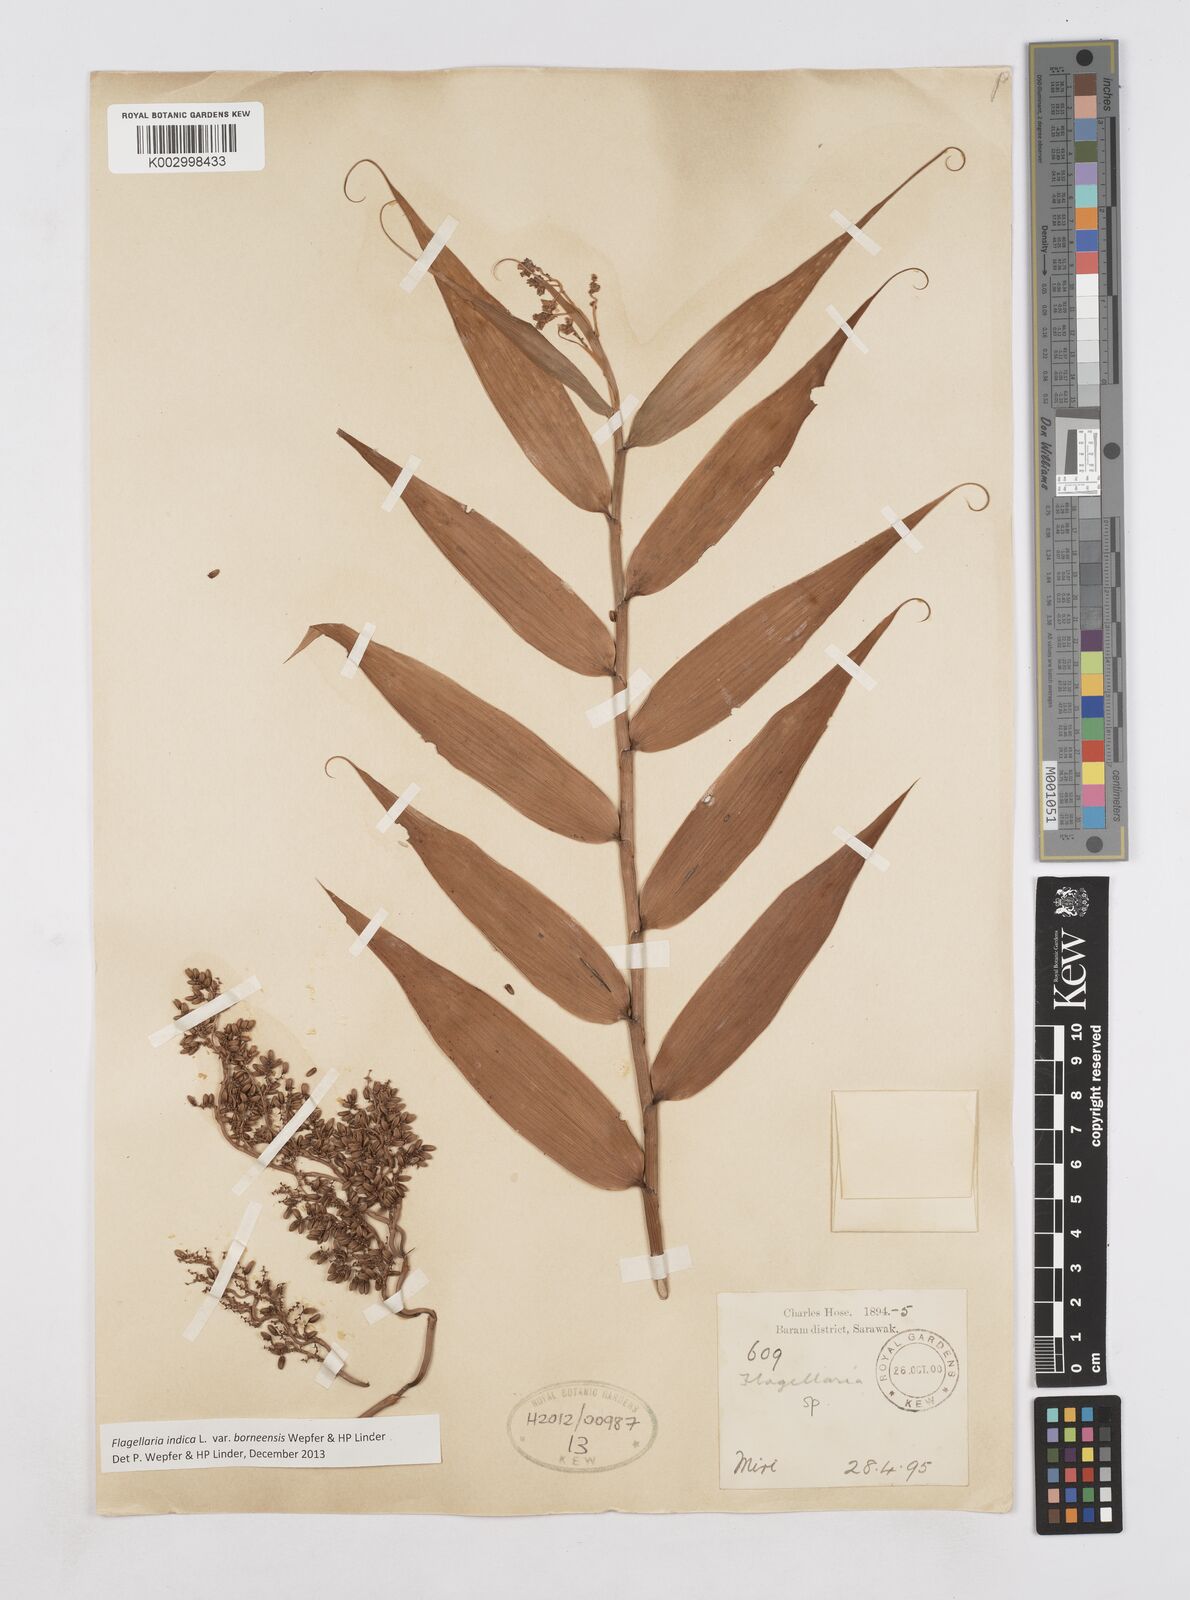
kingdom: Plantae
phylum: Tracheophyta
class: Liliopsida
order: Poales
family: Flagellariaceae
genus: Flagellaria
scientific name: Flagellaria indica
